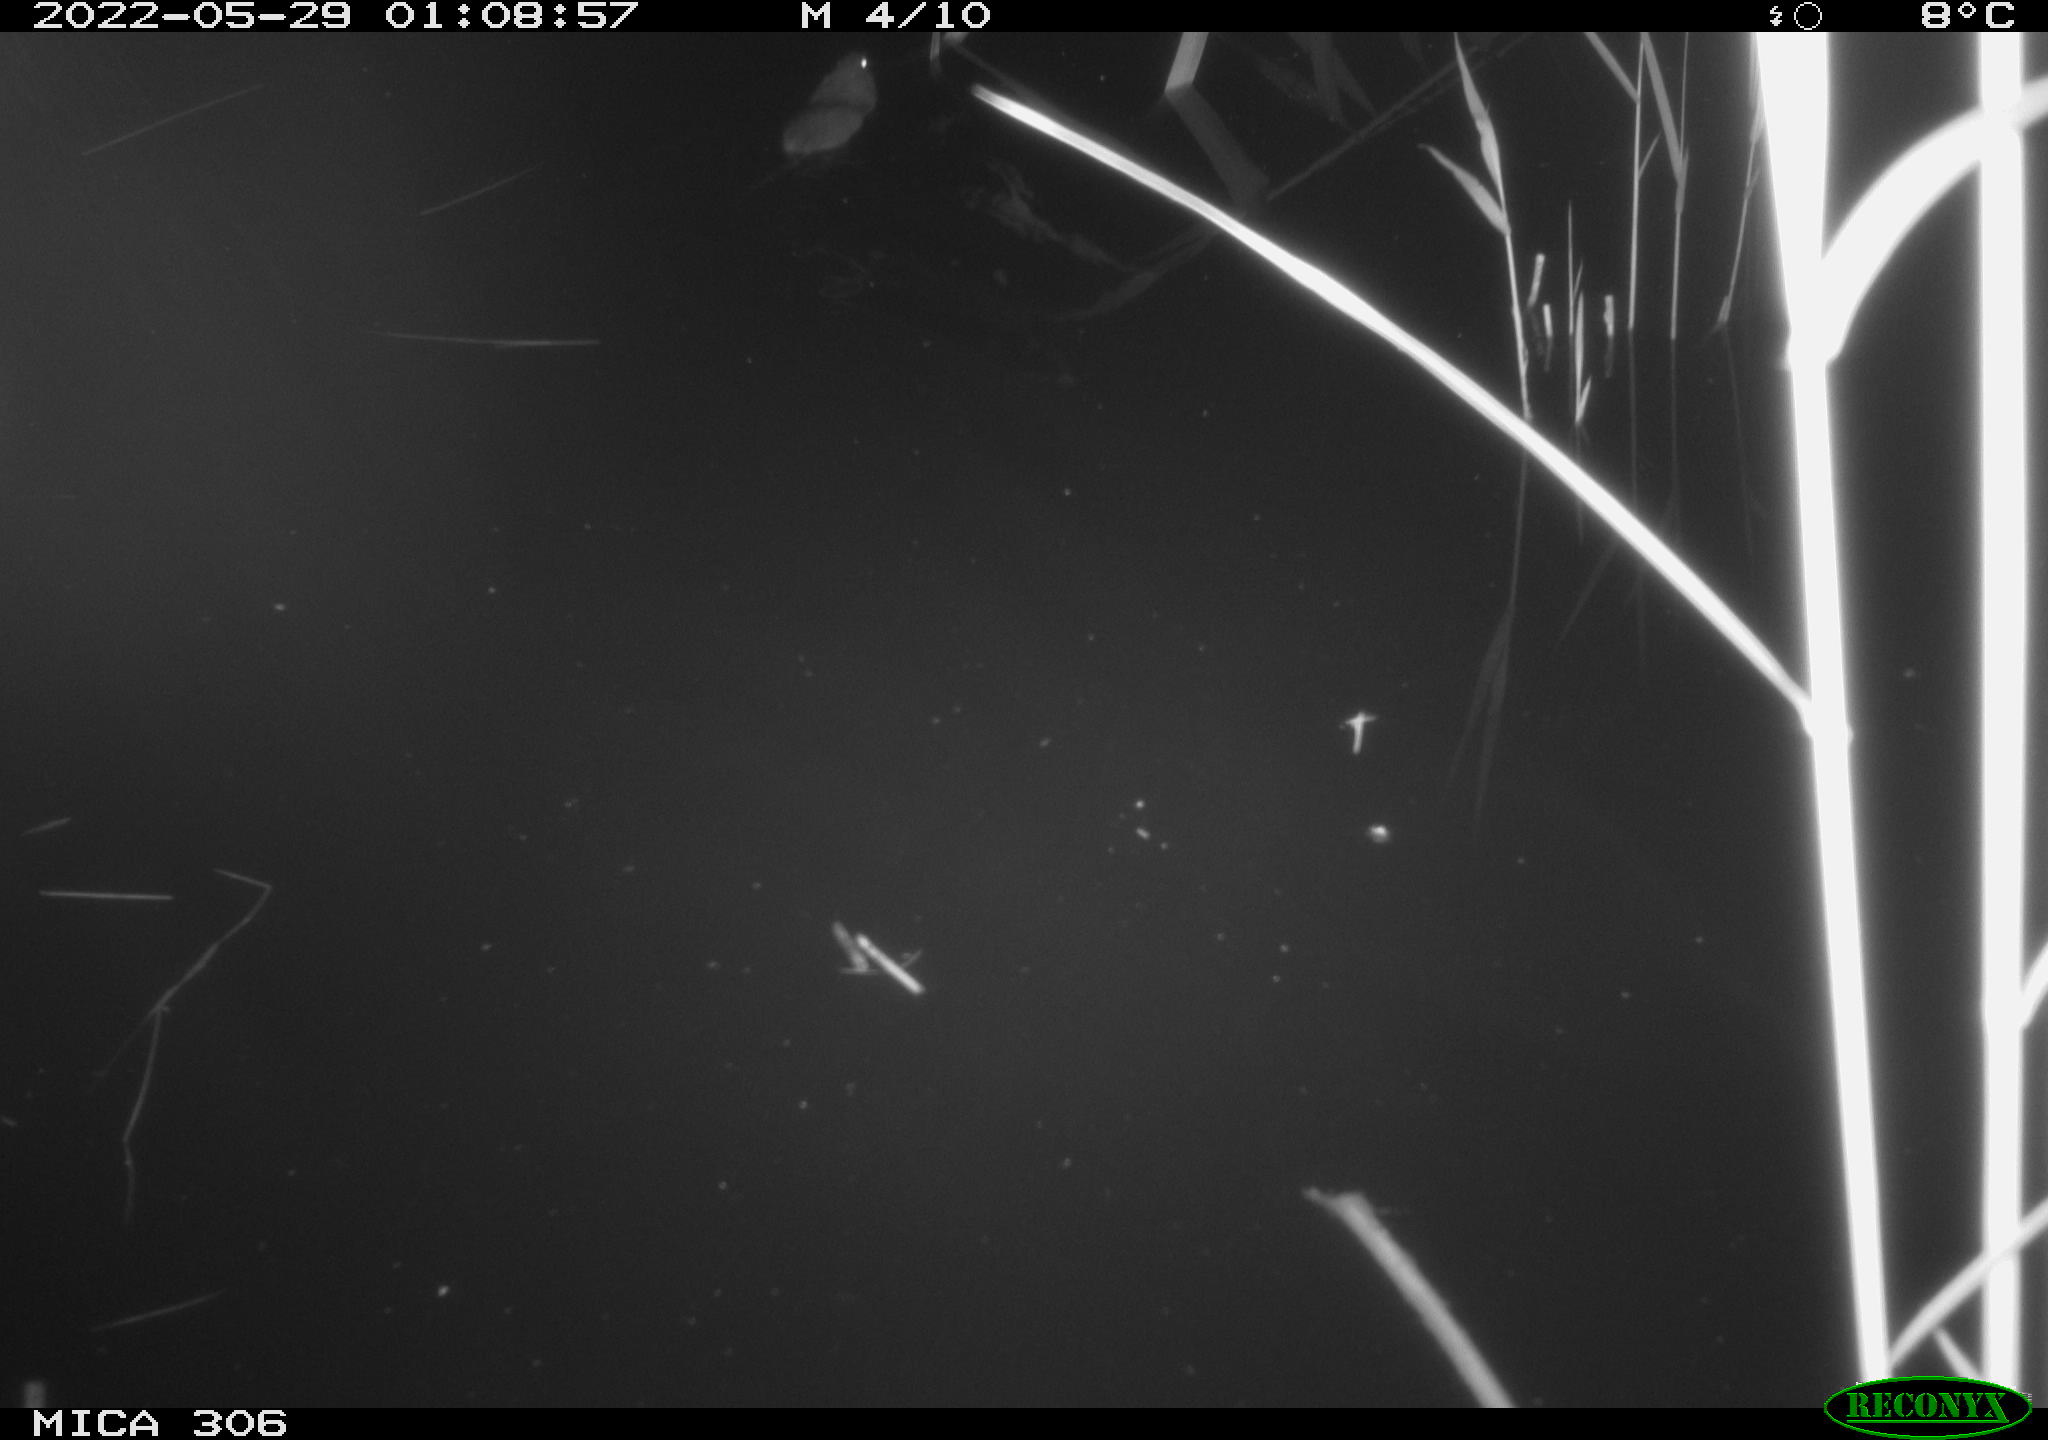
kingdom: Animalia
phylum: Chordata
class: Mammalia
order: Rodentia
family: Muridae
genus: Rattus
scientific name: Rattus norvegicus
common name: Brown rat
